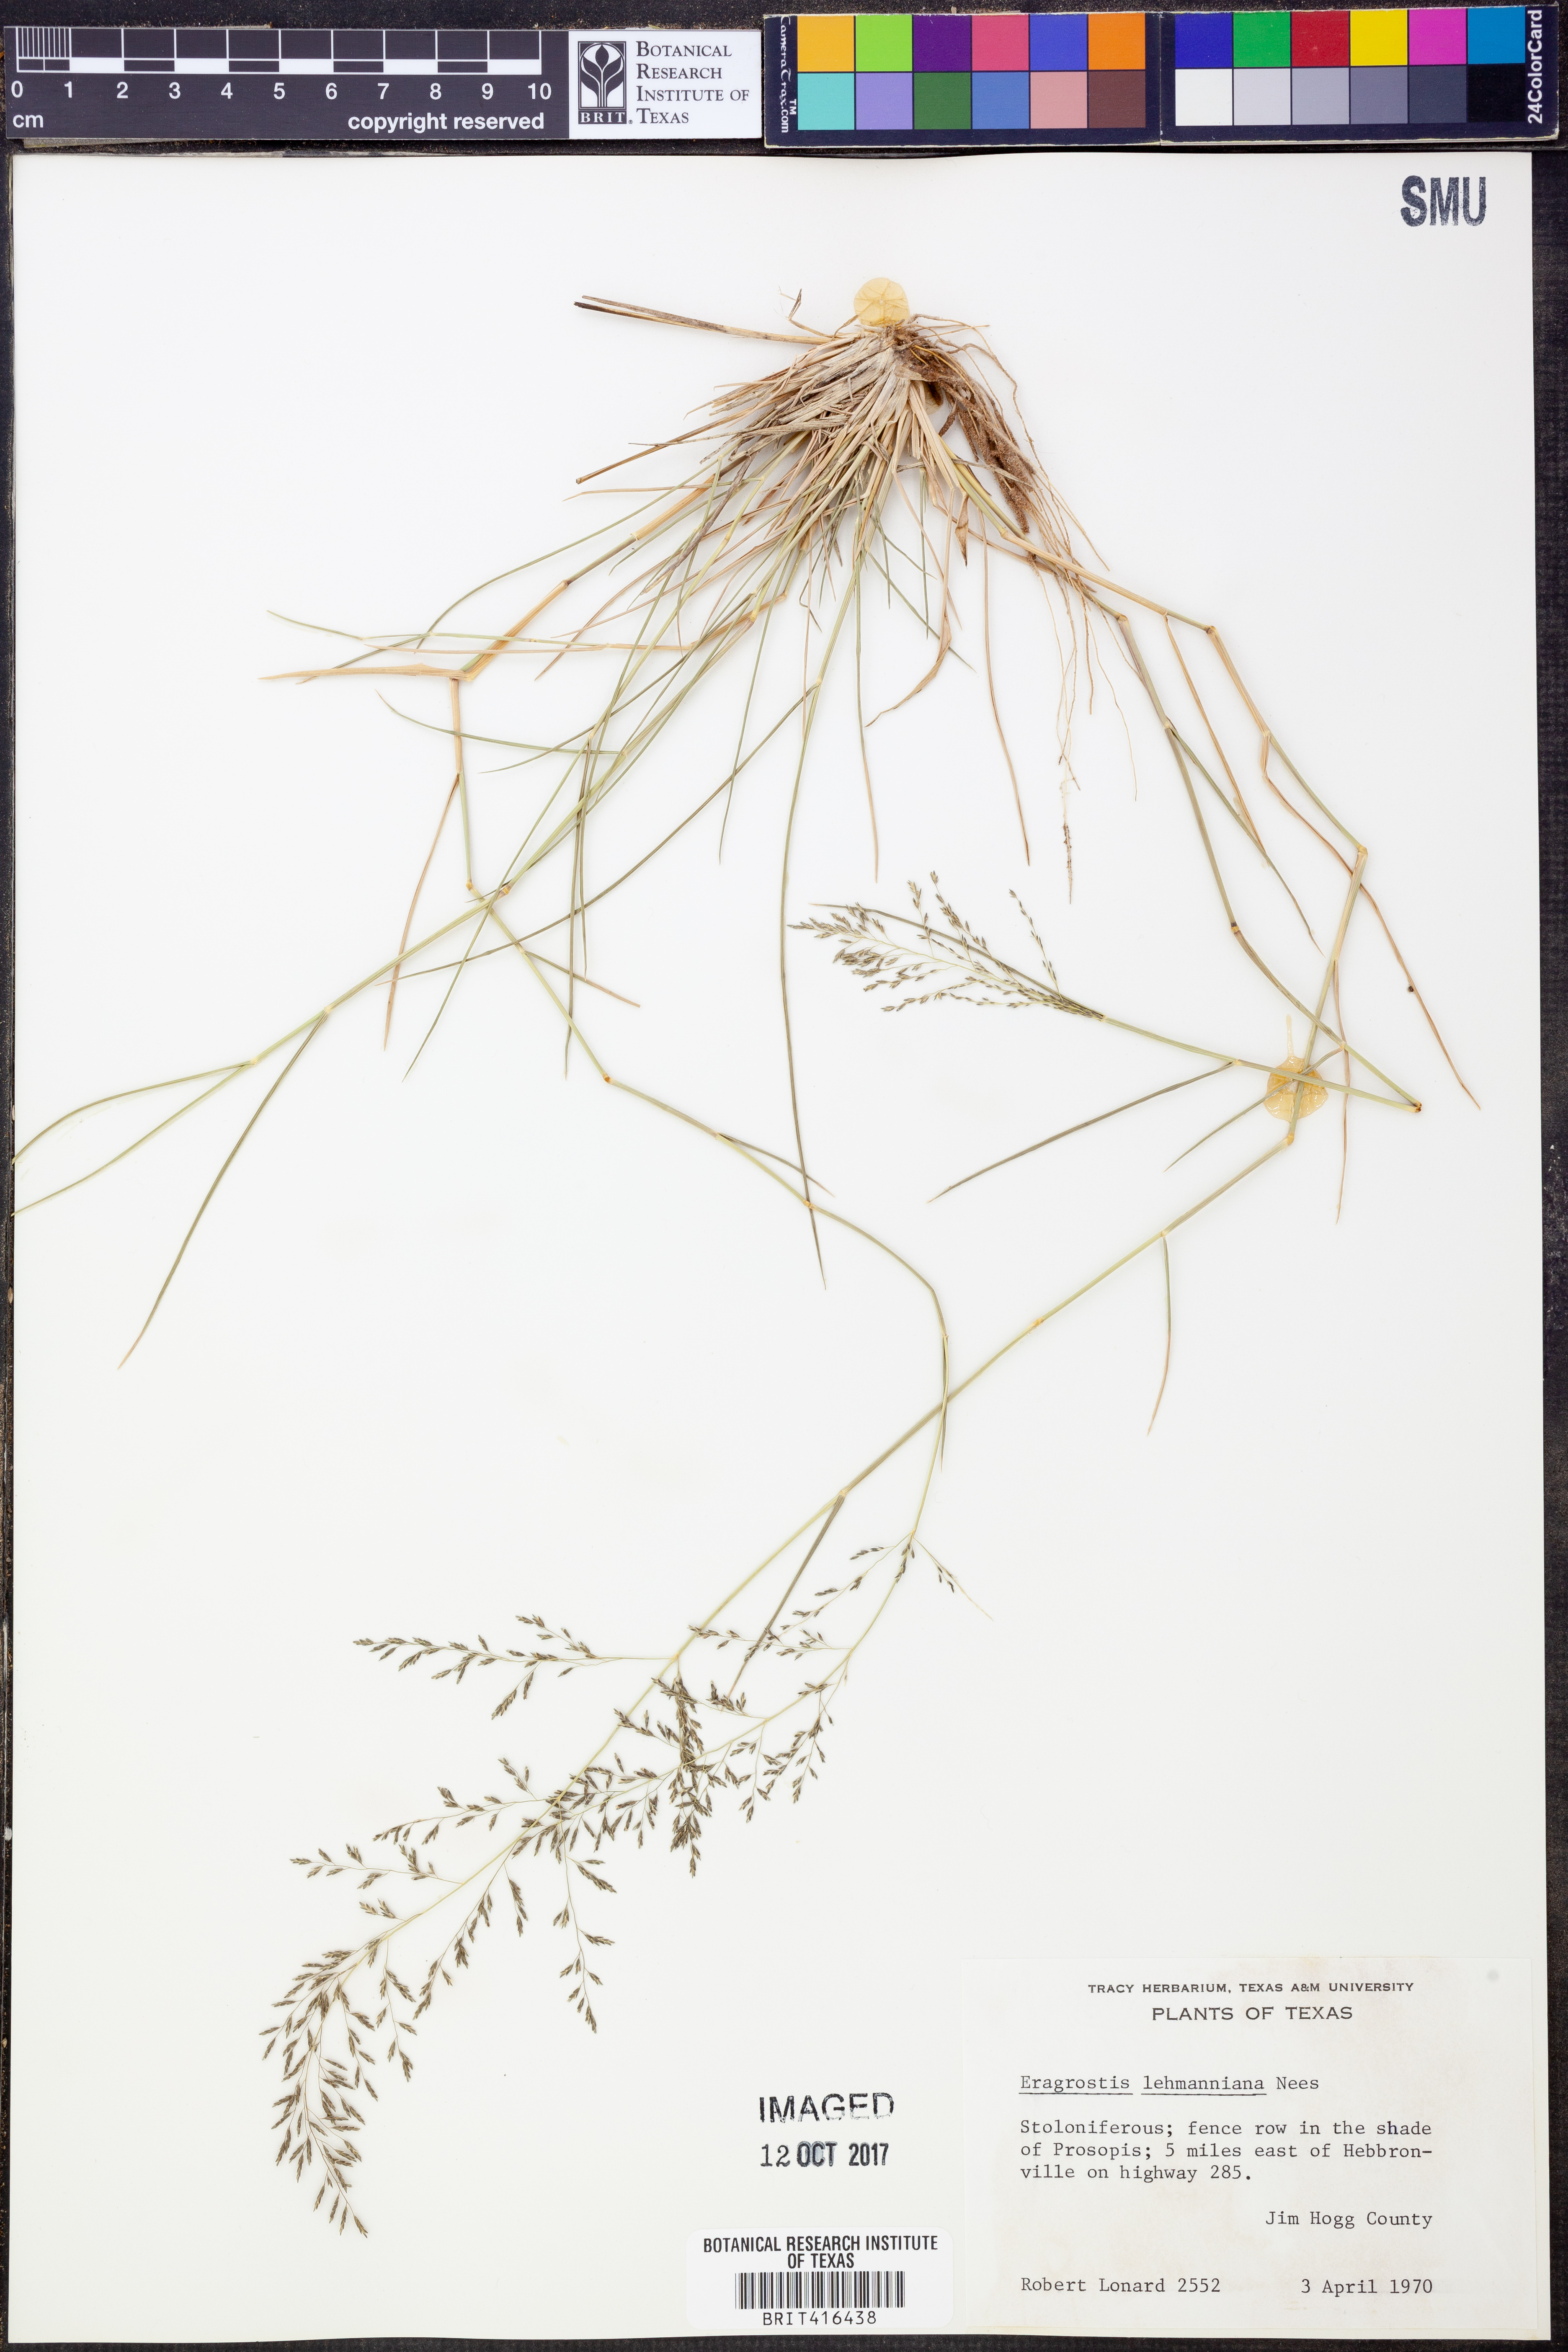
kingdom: Plantae
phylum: Tracheophyta
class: Liliopsida
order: Poales
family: Poaceae
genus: Eragrostis
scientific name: Eragrostis lehmanniana
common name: Lehmann lovegrass
